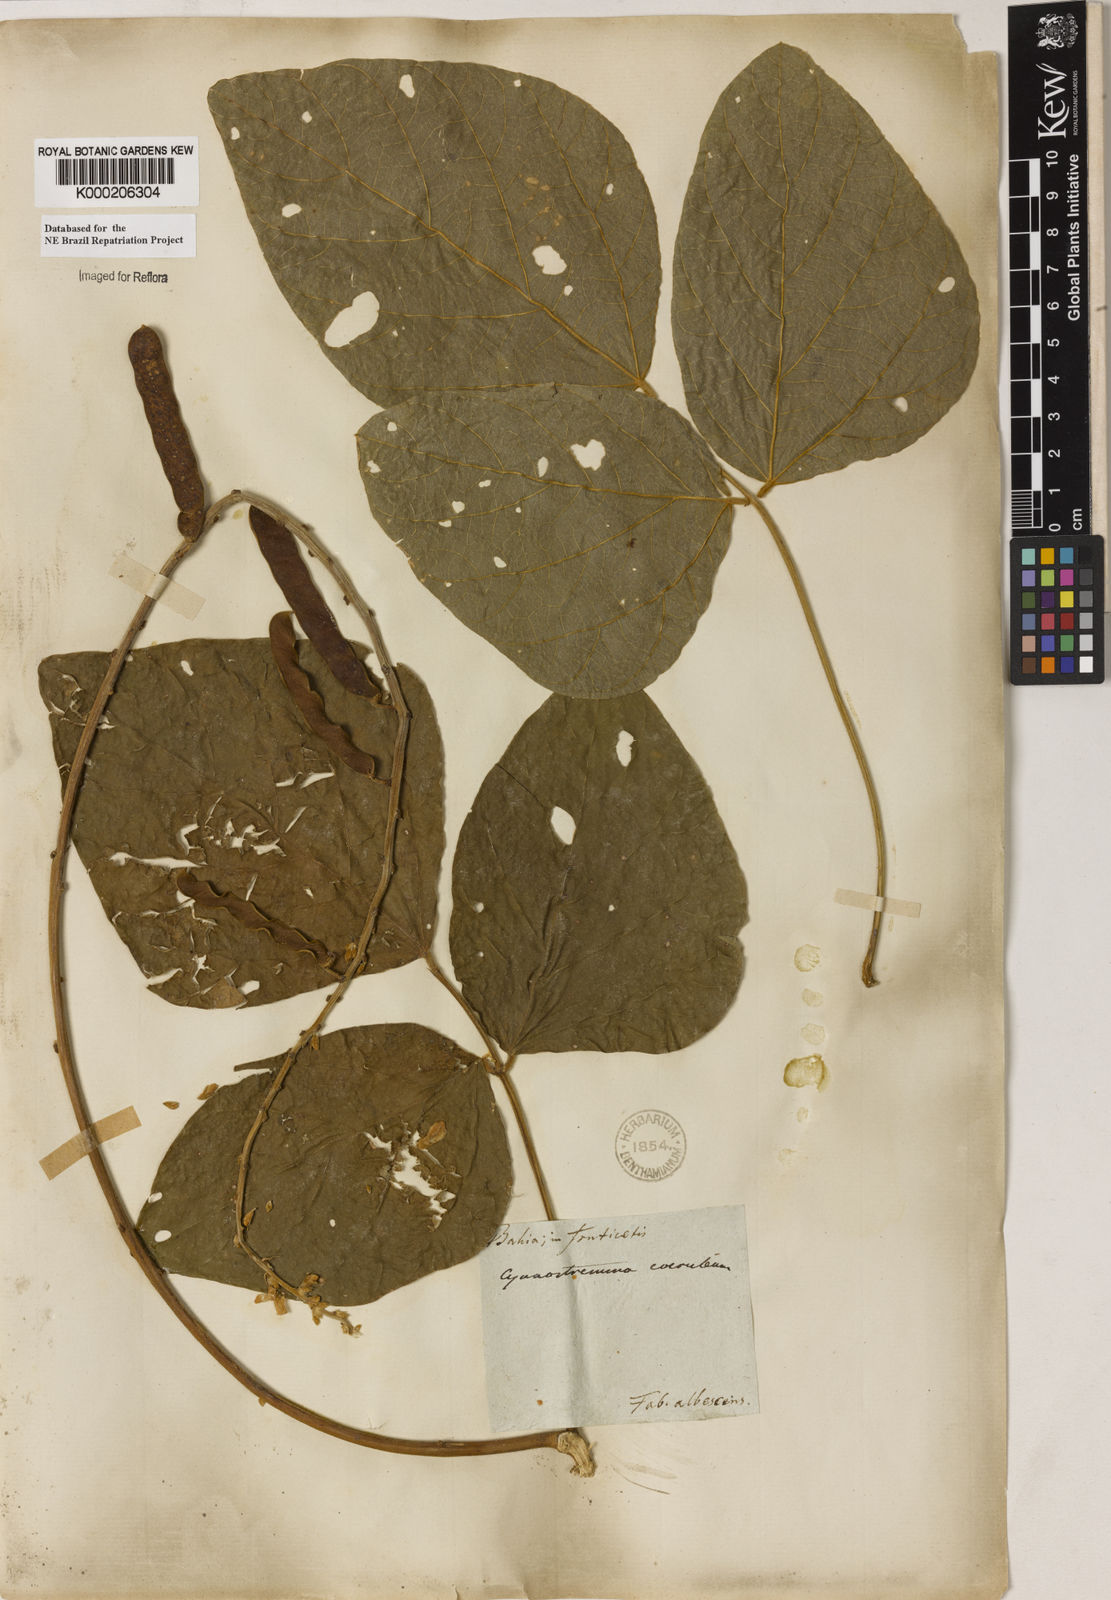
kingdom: Plantae
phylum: Tracheophyta
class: Magnoliopsida
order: Fabales
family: Fabaceae
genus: Calopogonium
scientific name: Calopogonium
